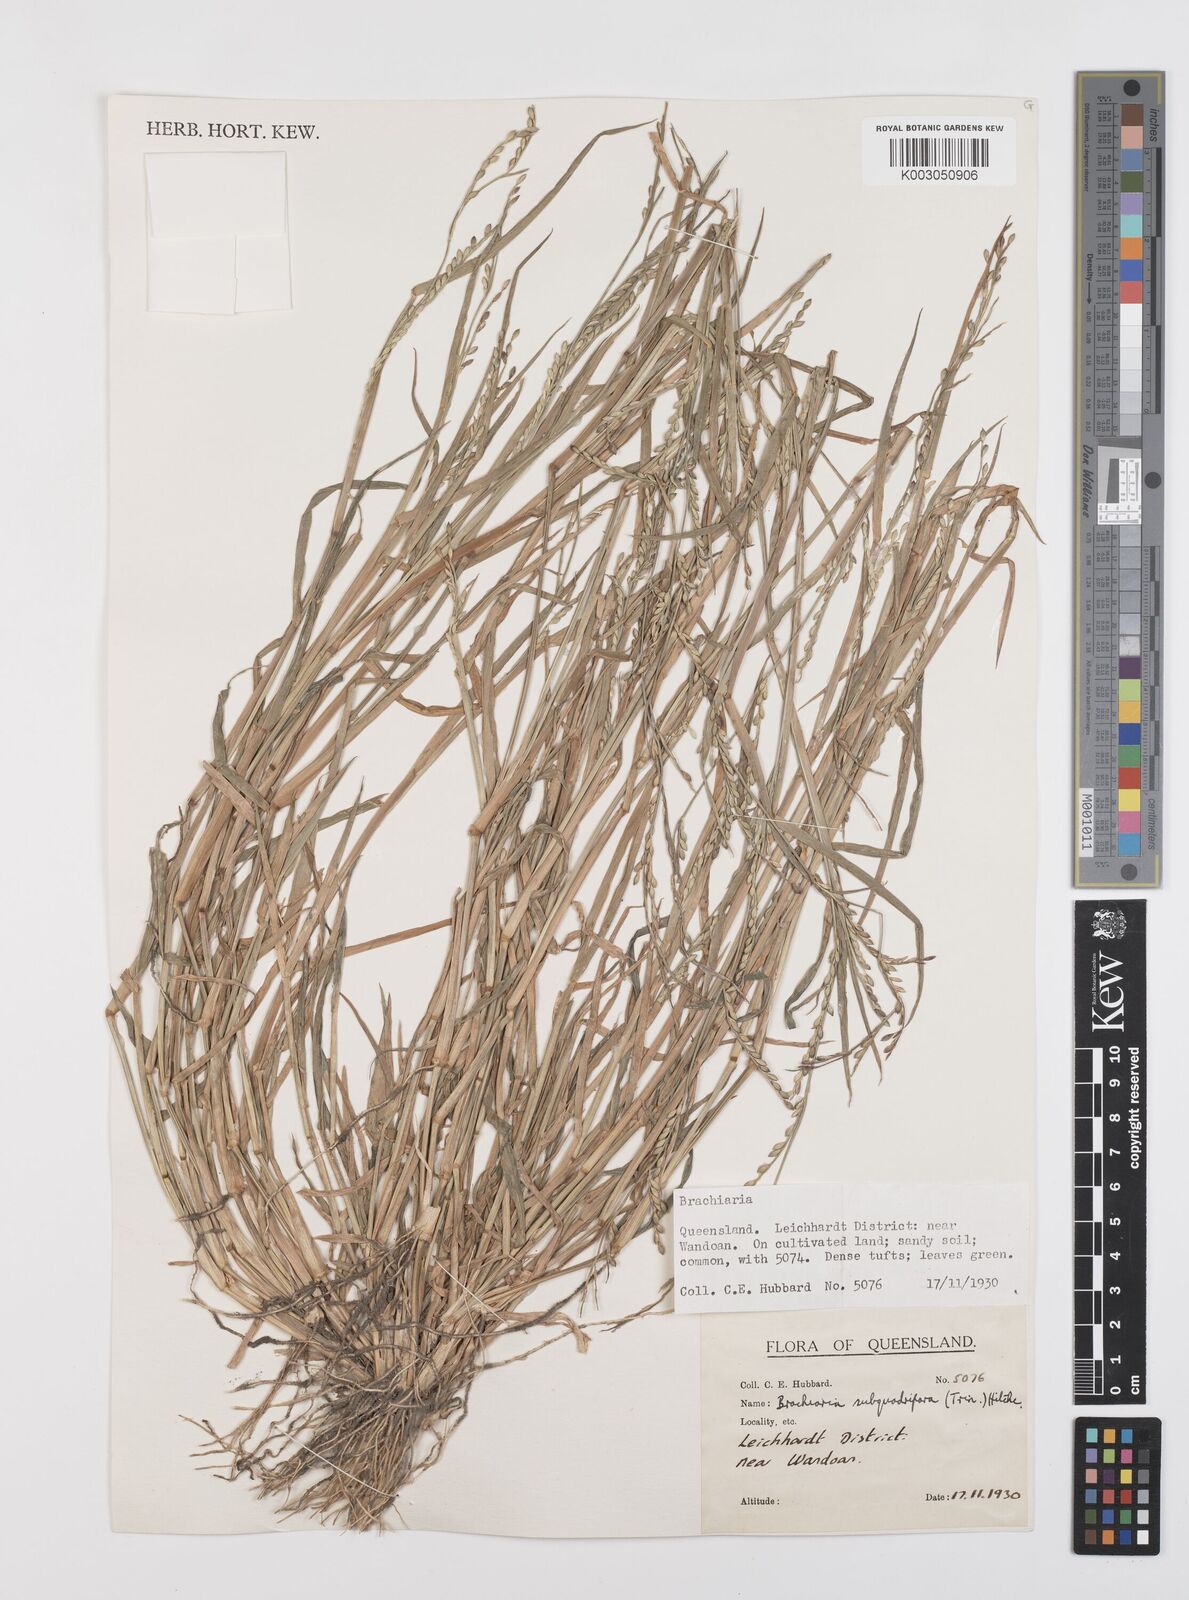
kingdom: Plantae
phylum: Tracheophyta
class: Liliopsida
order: Poales
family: Poaceae
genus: Urochloa
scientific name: Urochloa subquadripara
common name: Armgrass millet
